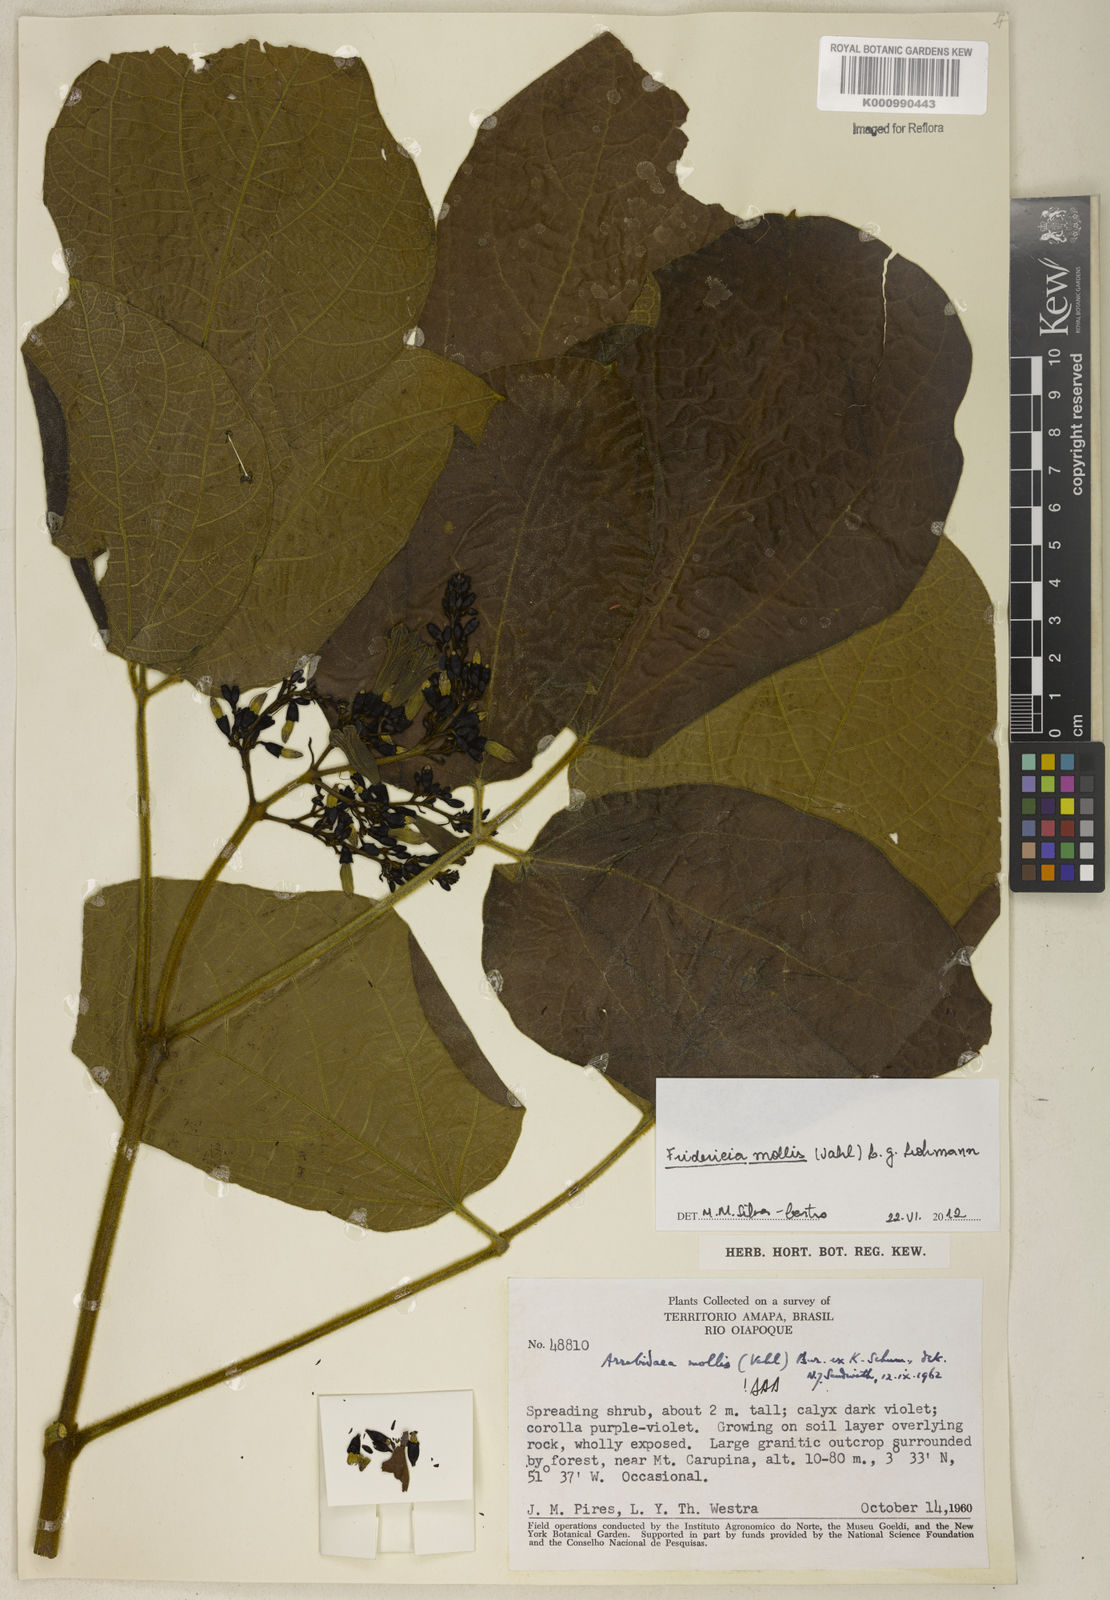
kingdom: Plantae
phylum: Tracheophyta
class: Magnoliopsida
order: Lamiales
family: Bignoniaceae
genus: Fridericia
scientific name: Fridericia mollis
